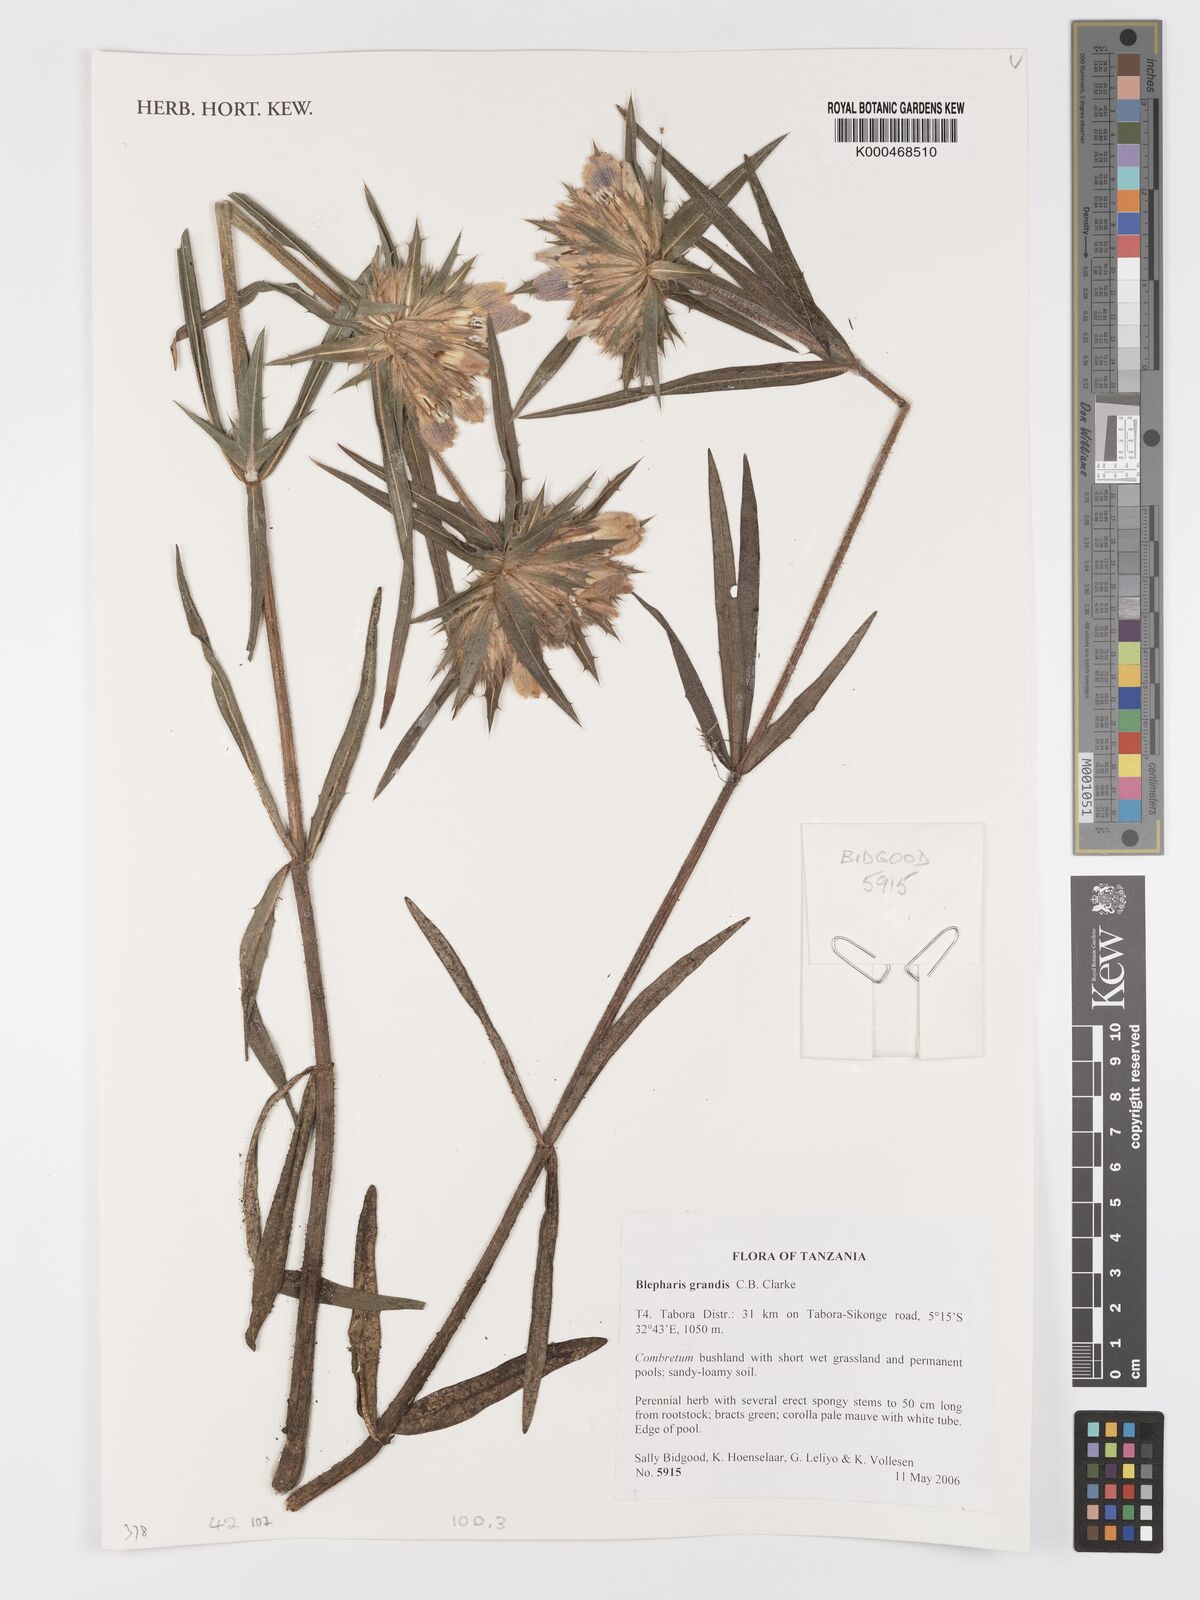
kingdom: Plantae
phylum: Tracheophyta
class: Magnoliopsida
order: Lamiales
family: Acanthaceae
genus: Blepharis
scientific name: Blepharis asteracantha
